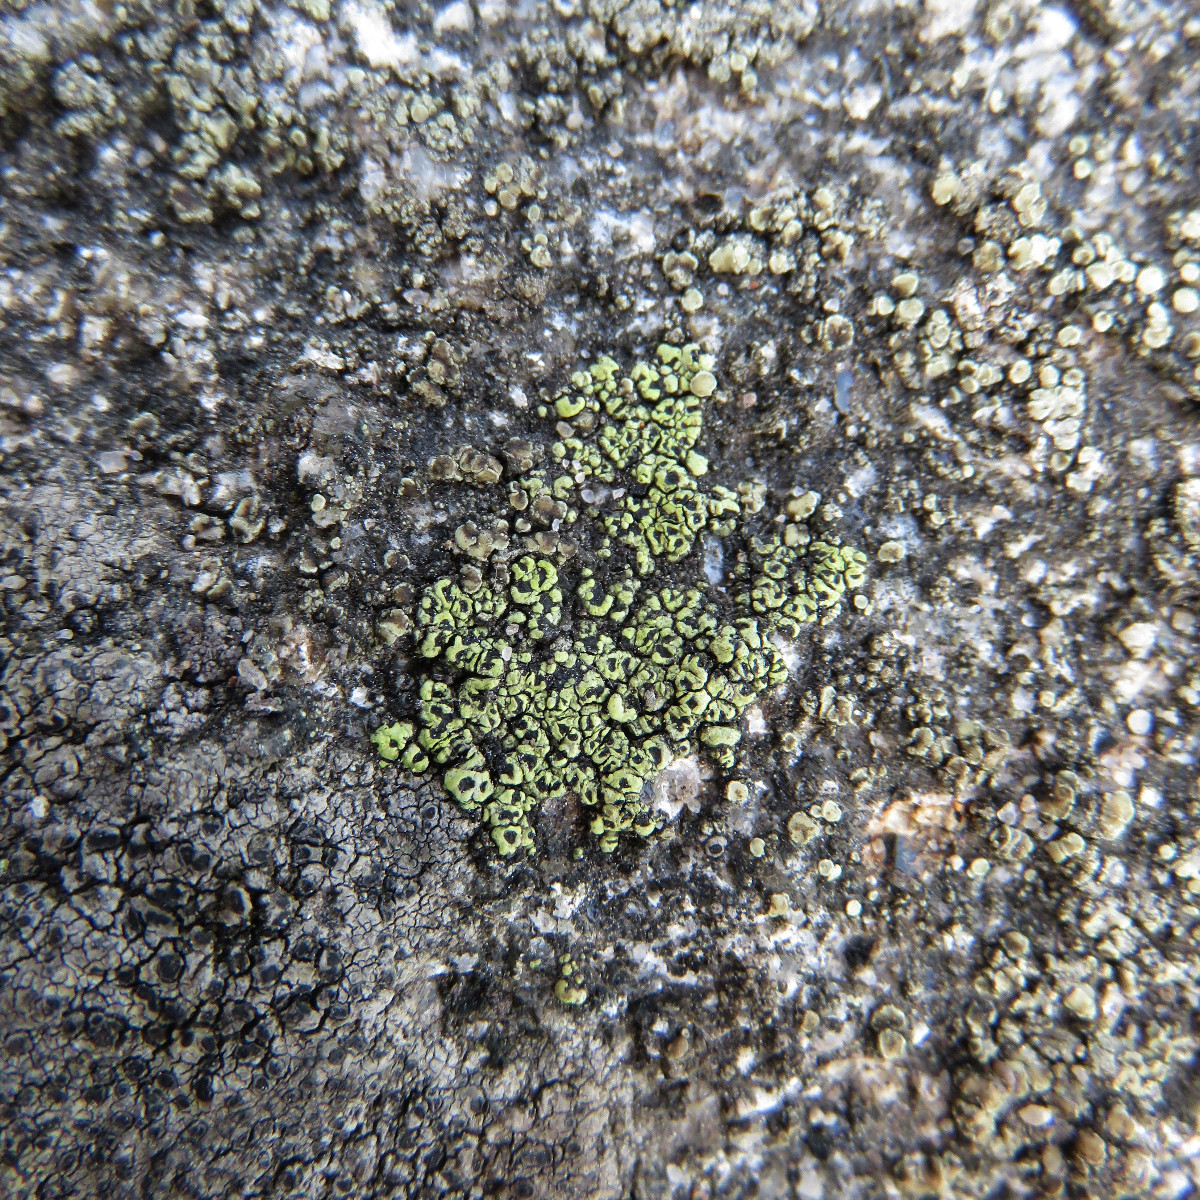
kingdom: Fungi
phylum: Ascomycota
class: Lecanoromycetes
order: Rhizocarpales
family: Rhizocarpaceae
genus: Rhizocarpon
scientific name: Rhizocarpon lecanorinum
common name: krave-landkortlav
